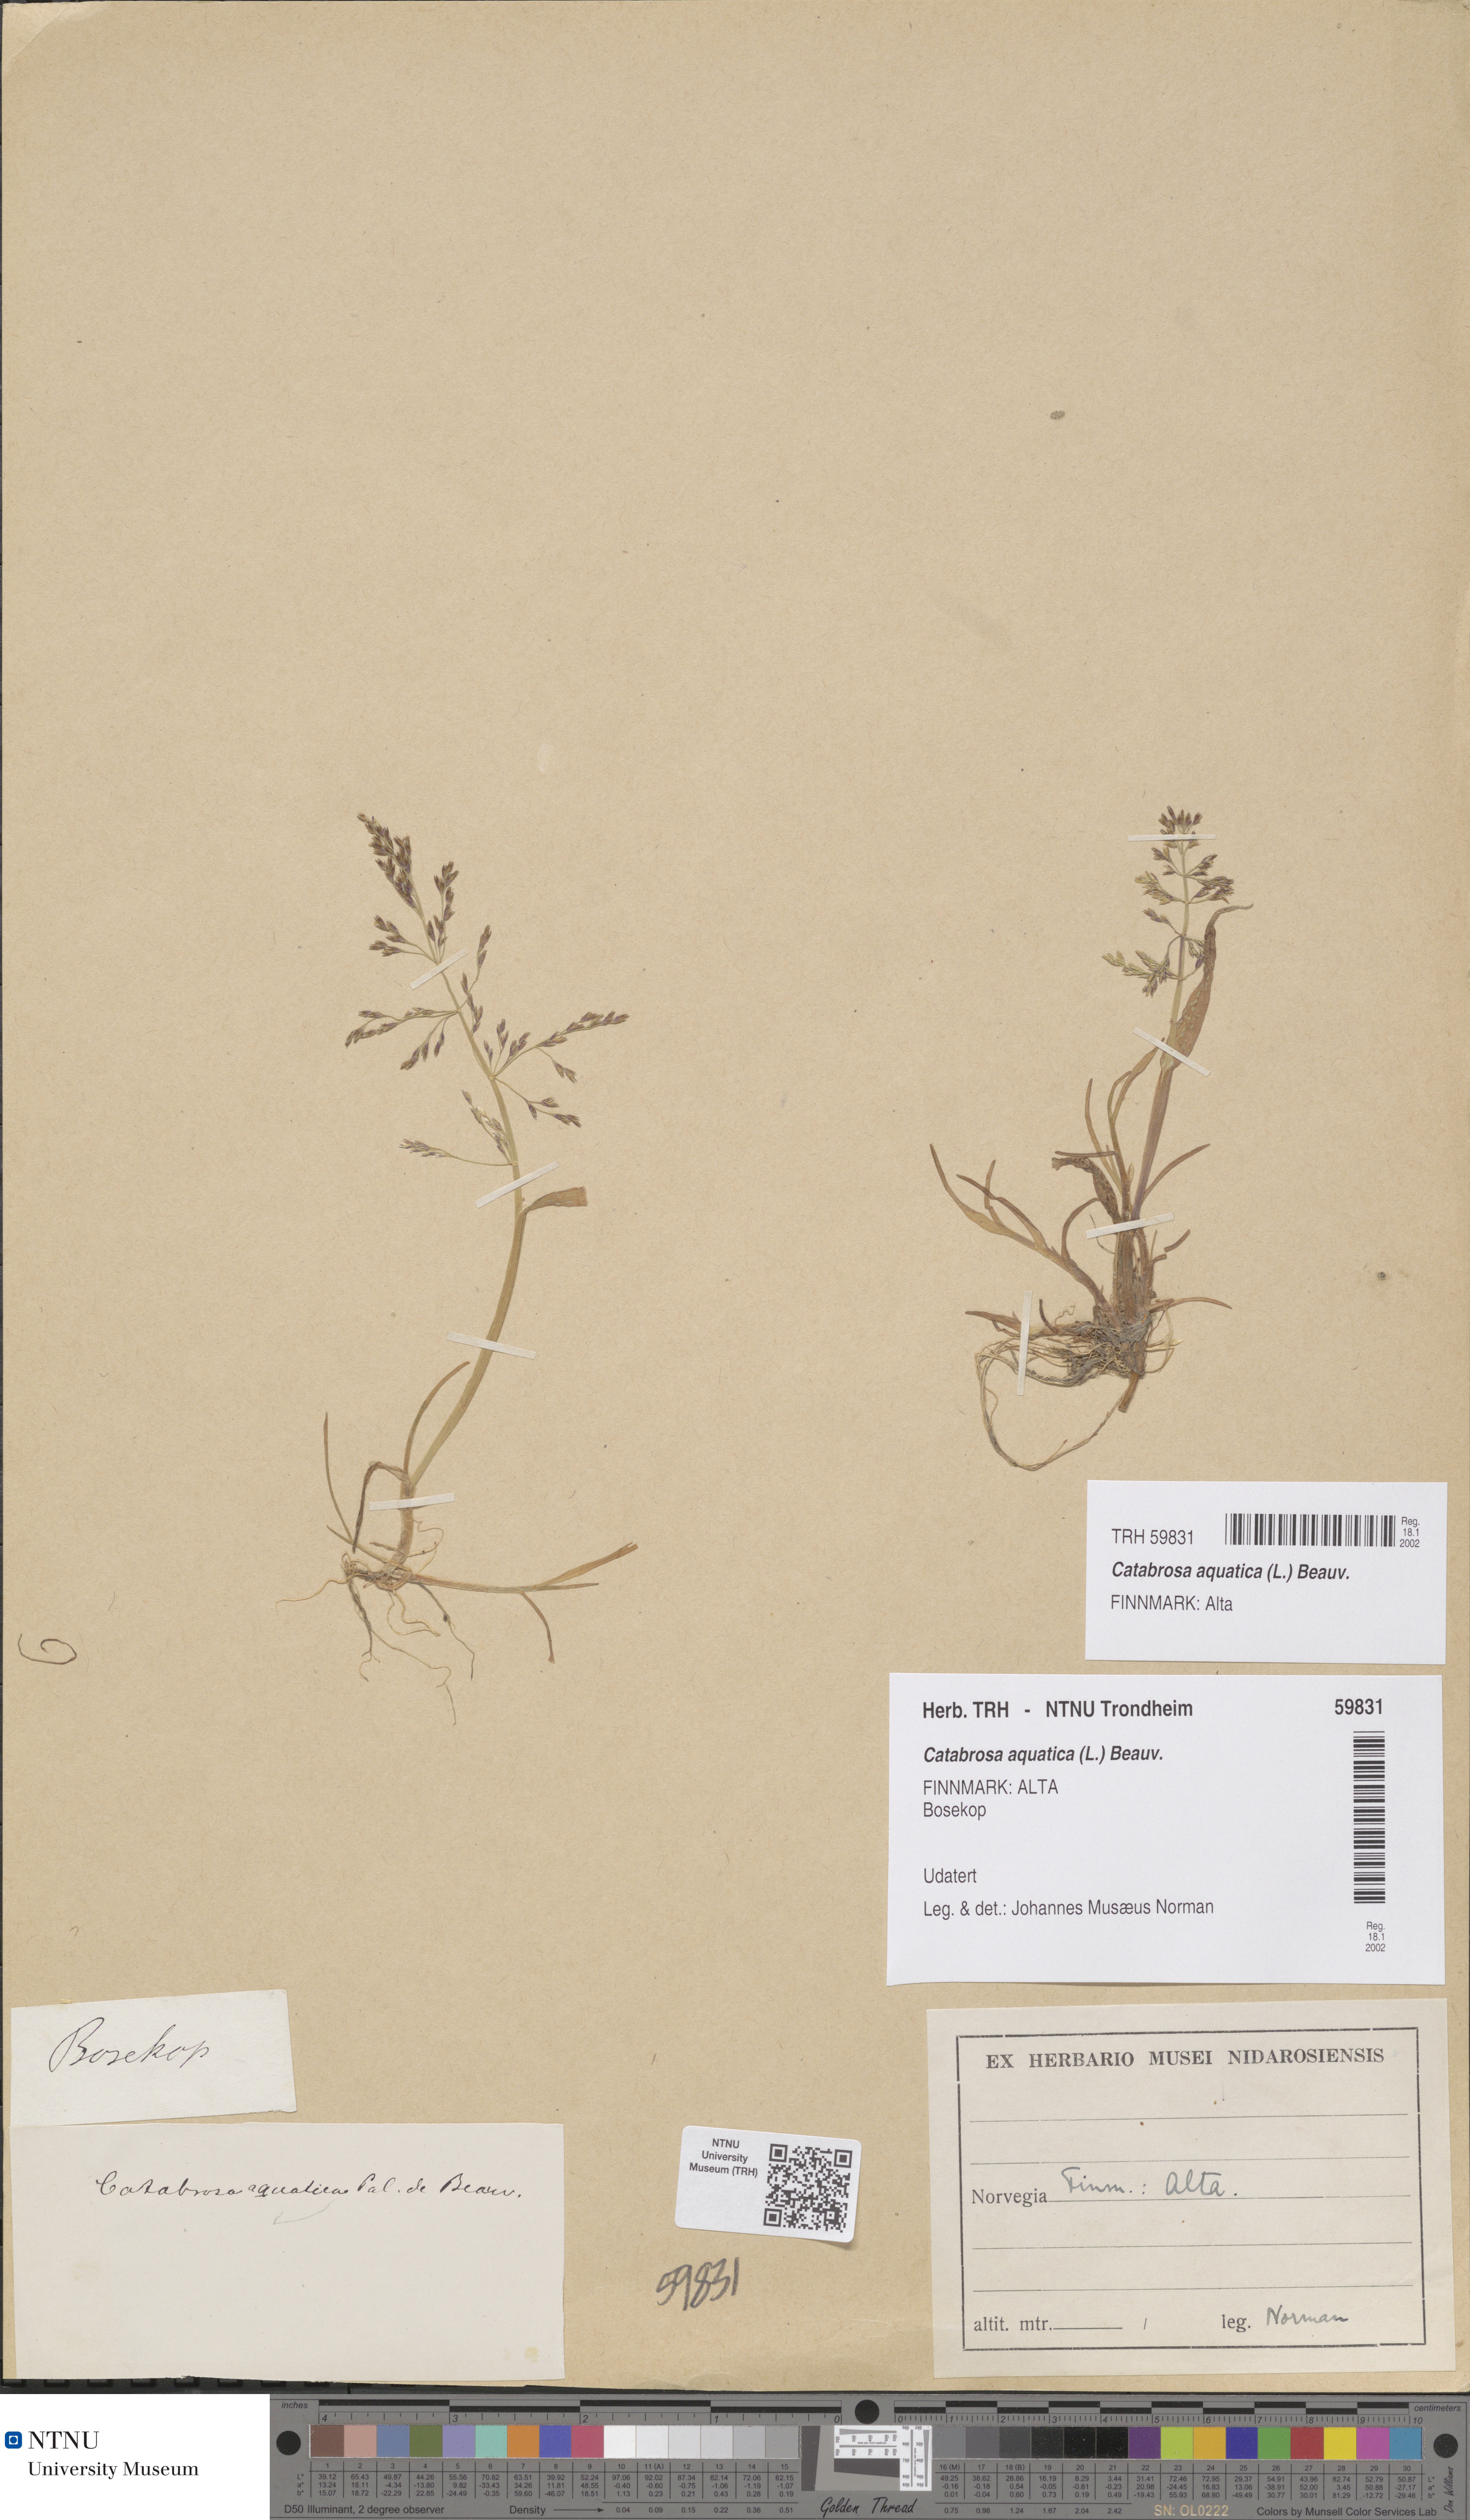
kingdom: Plantae
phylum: Tracheophyta
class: Liliopsida
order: Poales
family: Poaceae
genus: Catabrosa
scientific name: Catabrosa aquatica
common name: Whorl-grass
